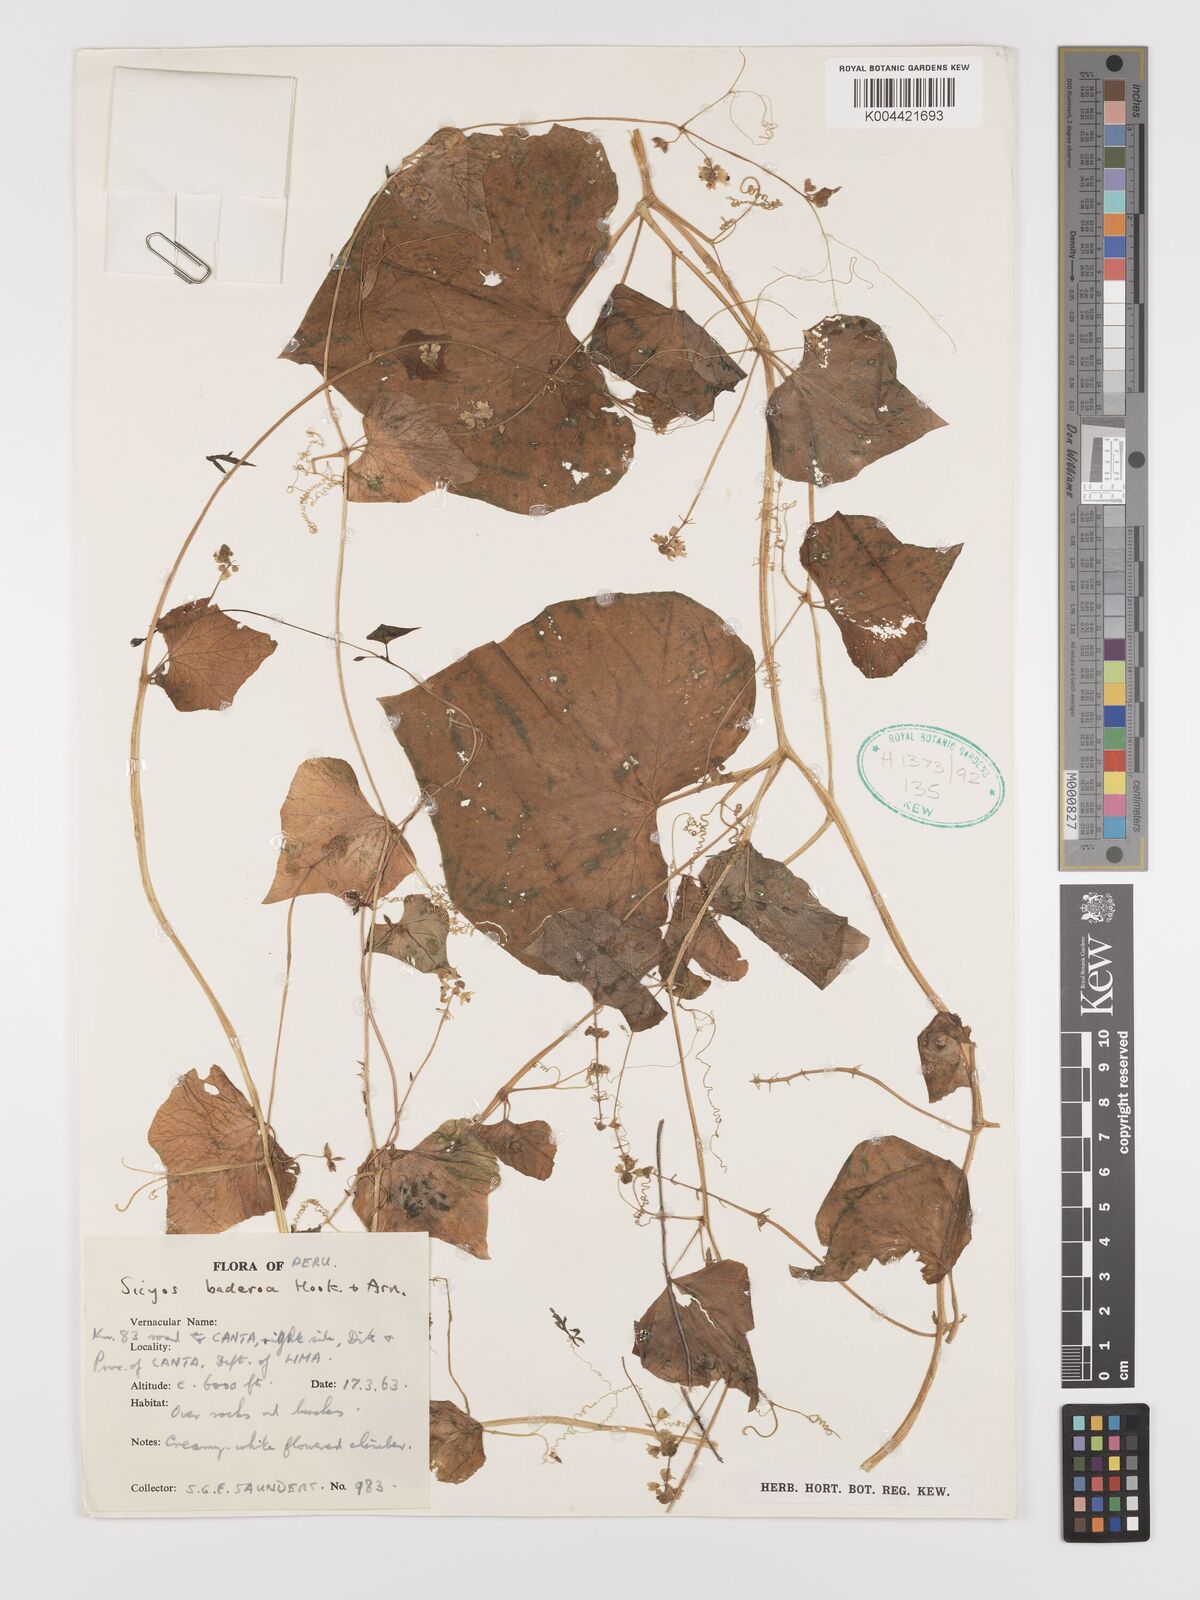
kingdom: Plantae
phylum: Tracheophyta
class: Magnoliopsida
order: Cucurbitales
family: Cucurbitaceae
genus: Sicyos
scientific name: Sicyos baderoa
